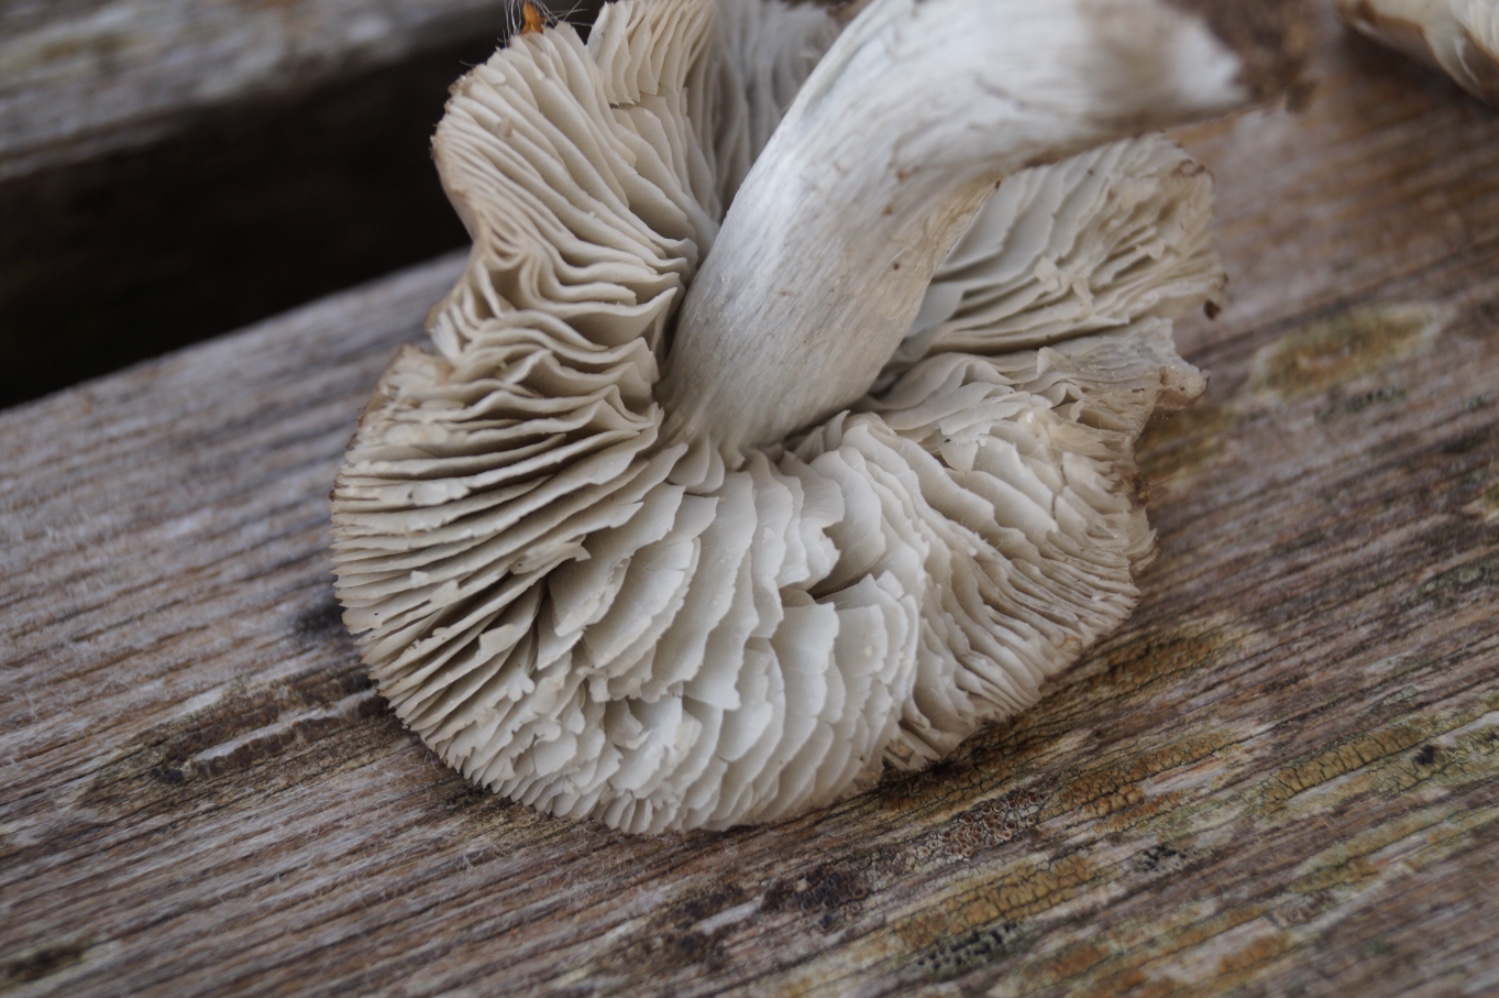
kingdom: Fungi
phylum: Basidiomycota
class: Agaricomycetes
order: Agaricales
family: Tricholomataceae
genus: Dermoloma
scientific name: Dermoloma cuneifolium
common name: eng-nonnehat
